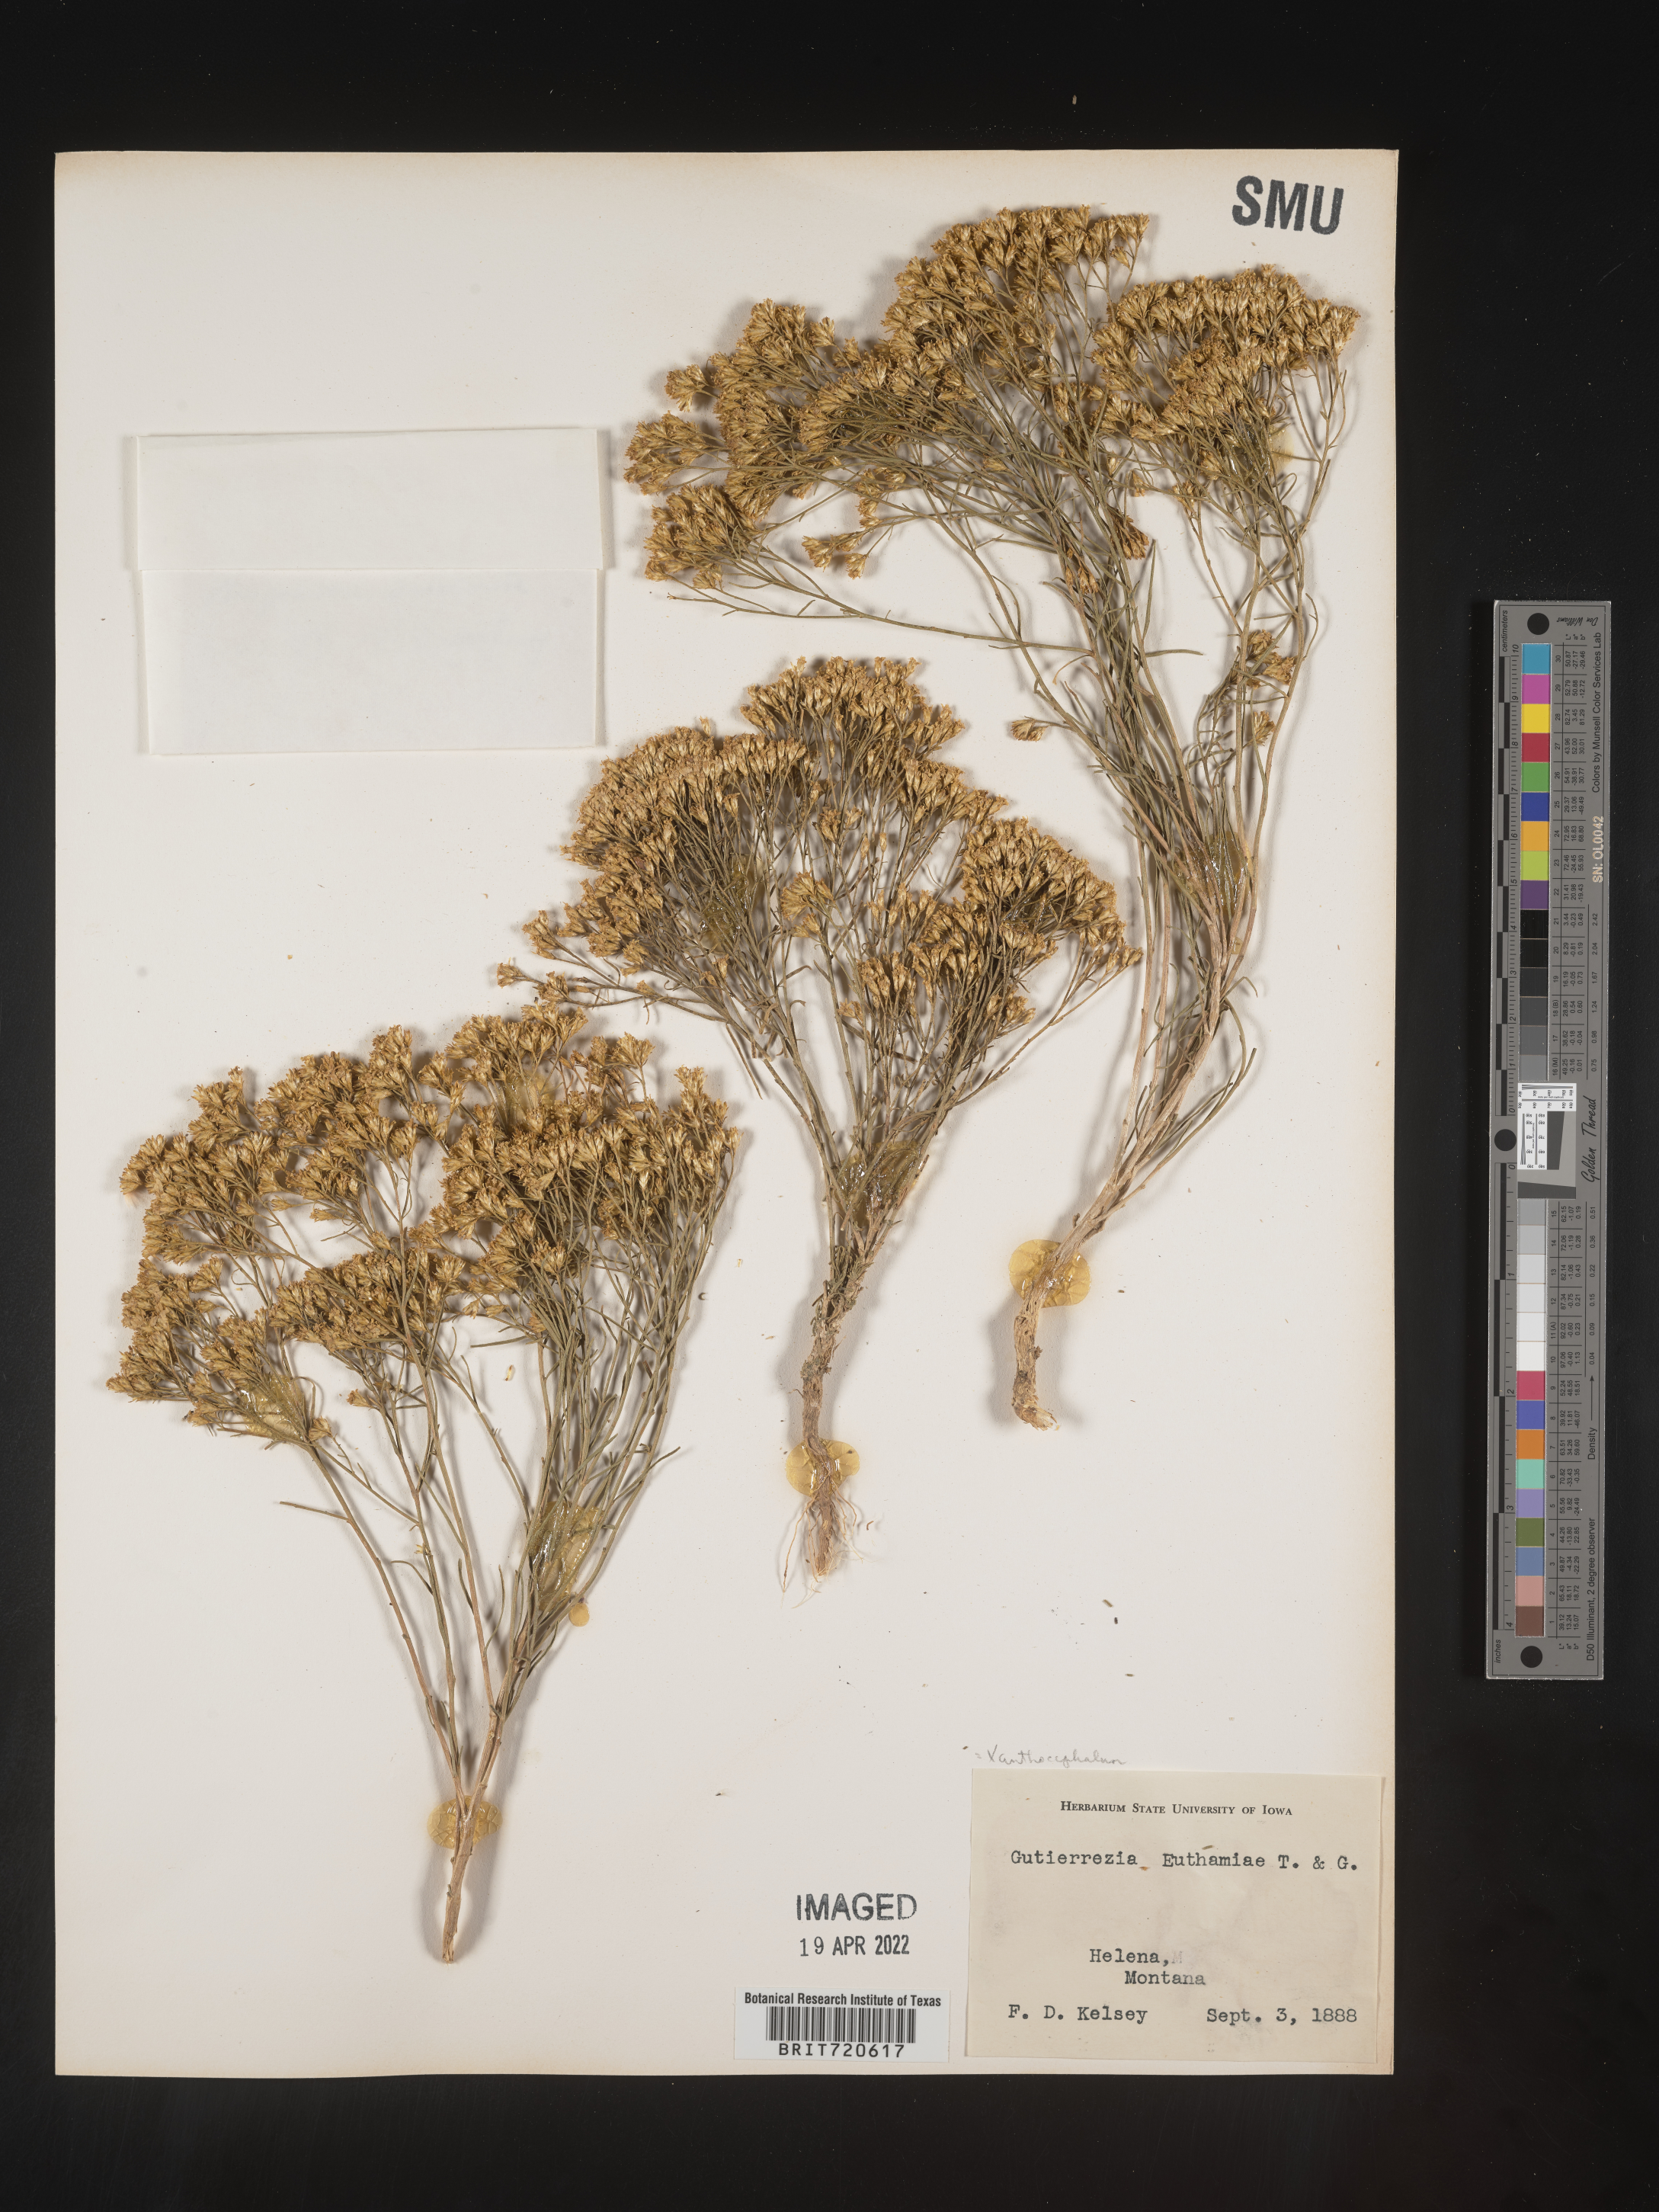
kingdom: Plantae
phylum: Tracheophyta
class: Magnoliopsida
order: Asterales
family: Asteraceae
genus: Gutierrezia
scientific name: Gutierrezia sarothrae
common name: Broom snakeweed
